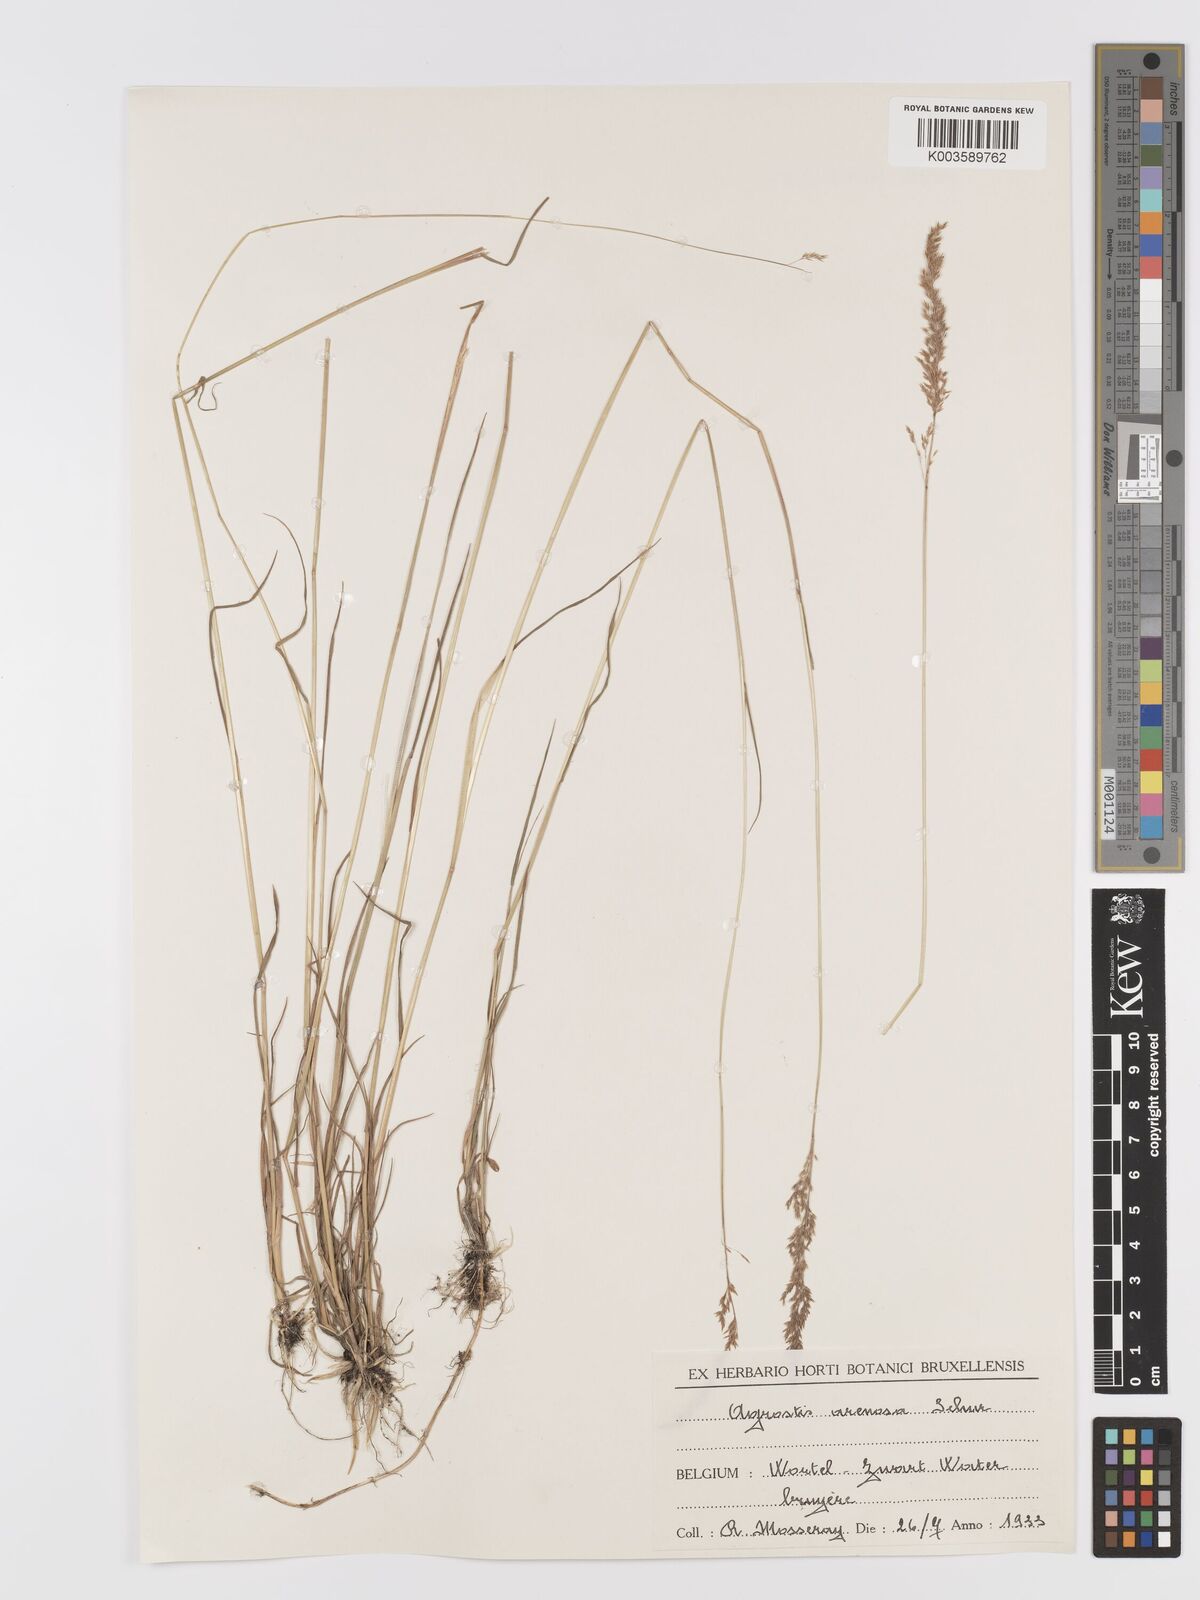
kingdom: Plantae
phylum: Tracheophyta
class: Liliopsida
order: Poales
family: Poaceae
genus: Agrostis
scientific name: Agrostis
